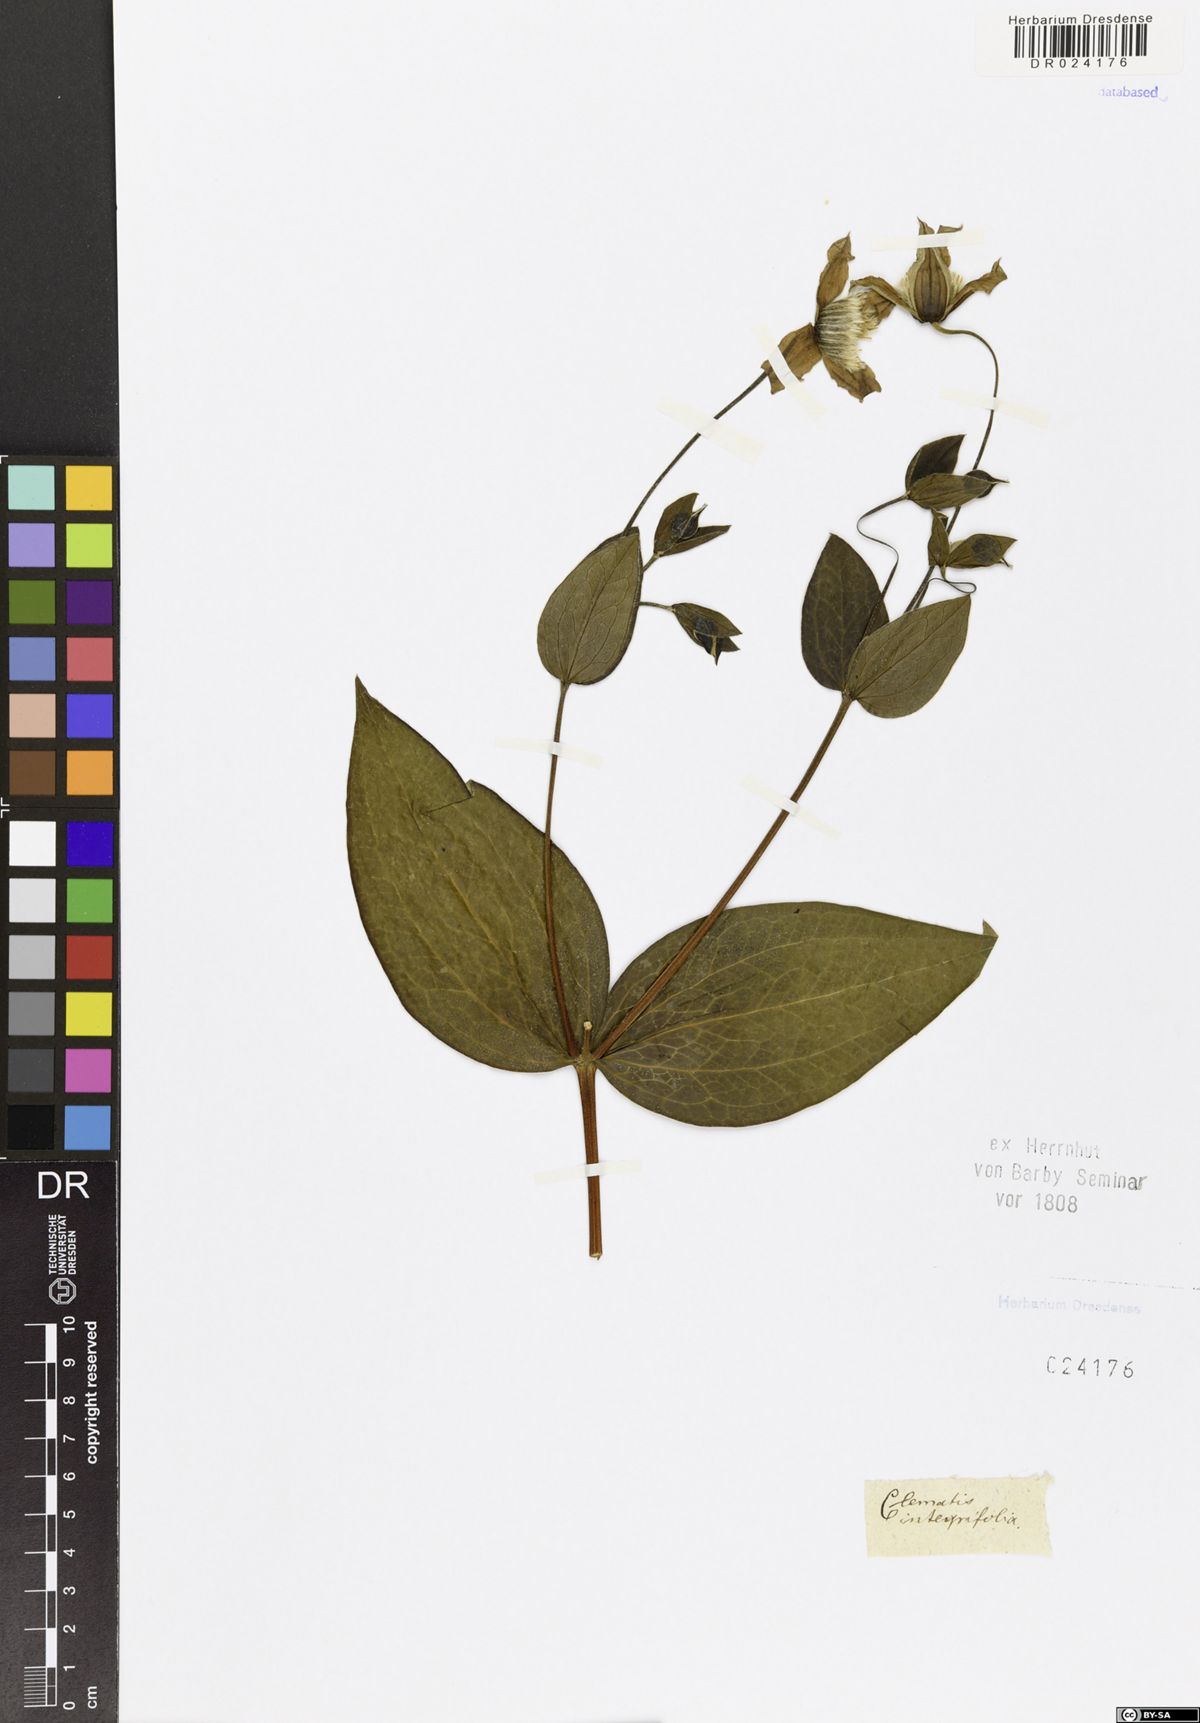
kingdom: Plantae
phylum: Tracheophyta
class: Magnoliopsida
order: Ranunculales
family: Ranunculaceae
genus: Clematis
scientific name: Clematis integrifolia
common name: Solitary clematis
